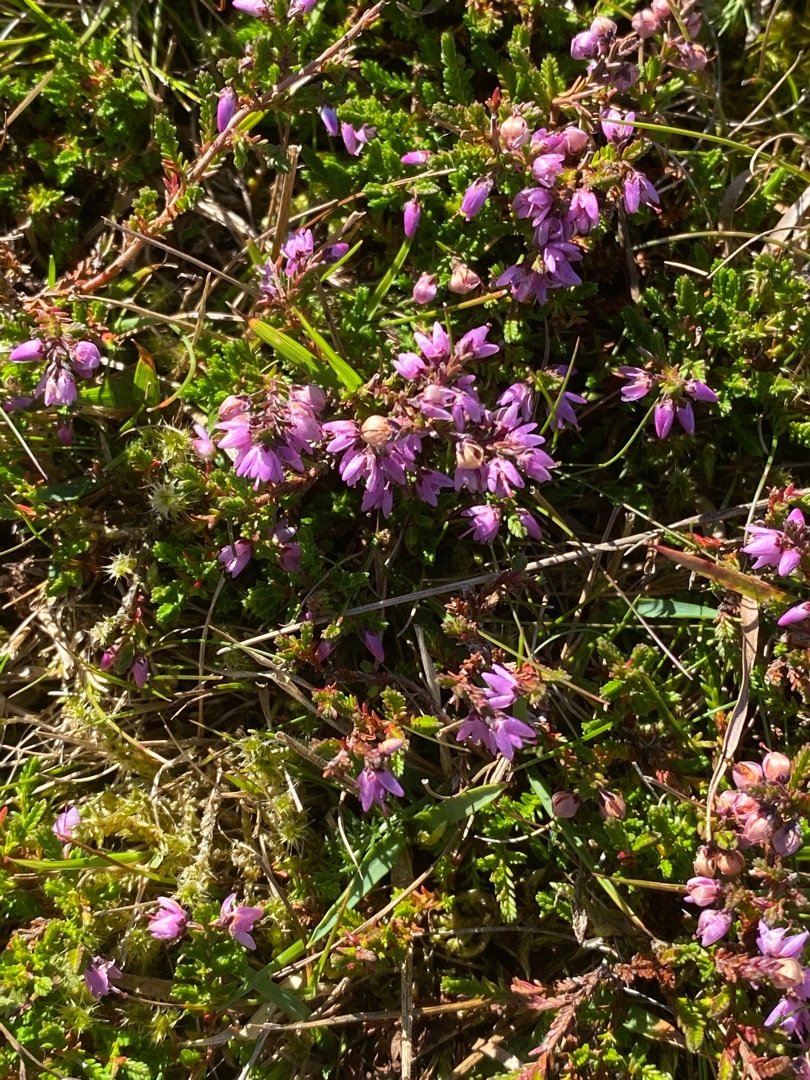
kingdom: Plantae
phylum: Tracheophyta
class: Magnoliopsida
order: Ericales
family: Ericaceae
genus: Calluna
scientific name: Calluna vulgaris
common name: Hedelyng
